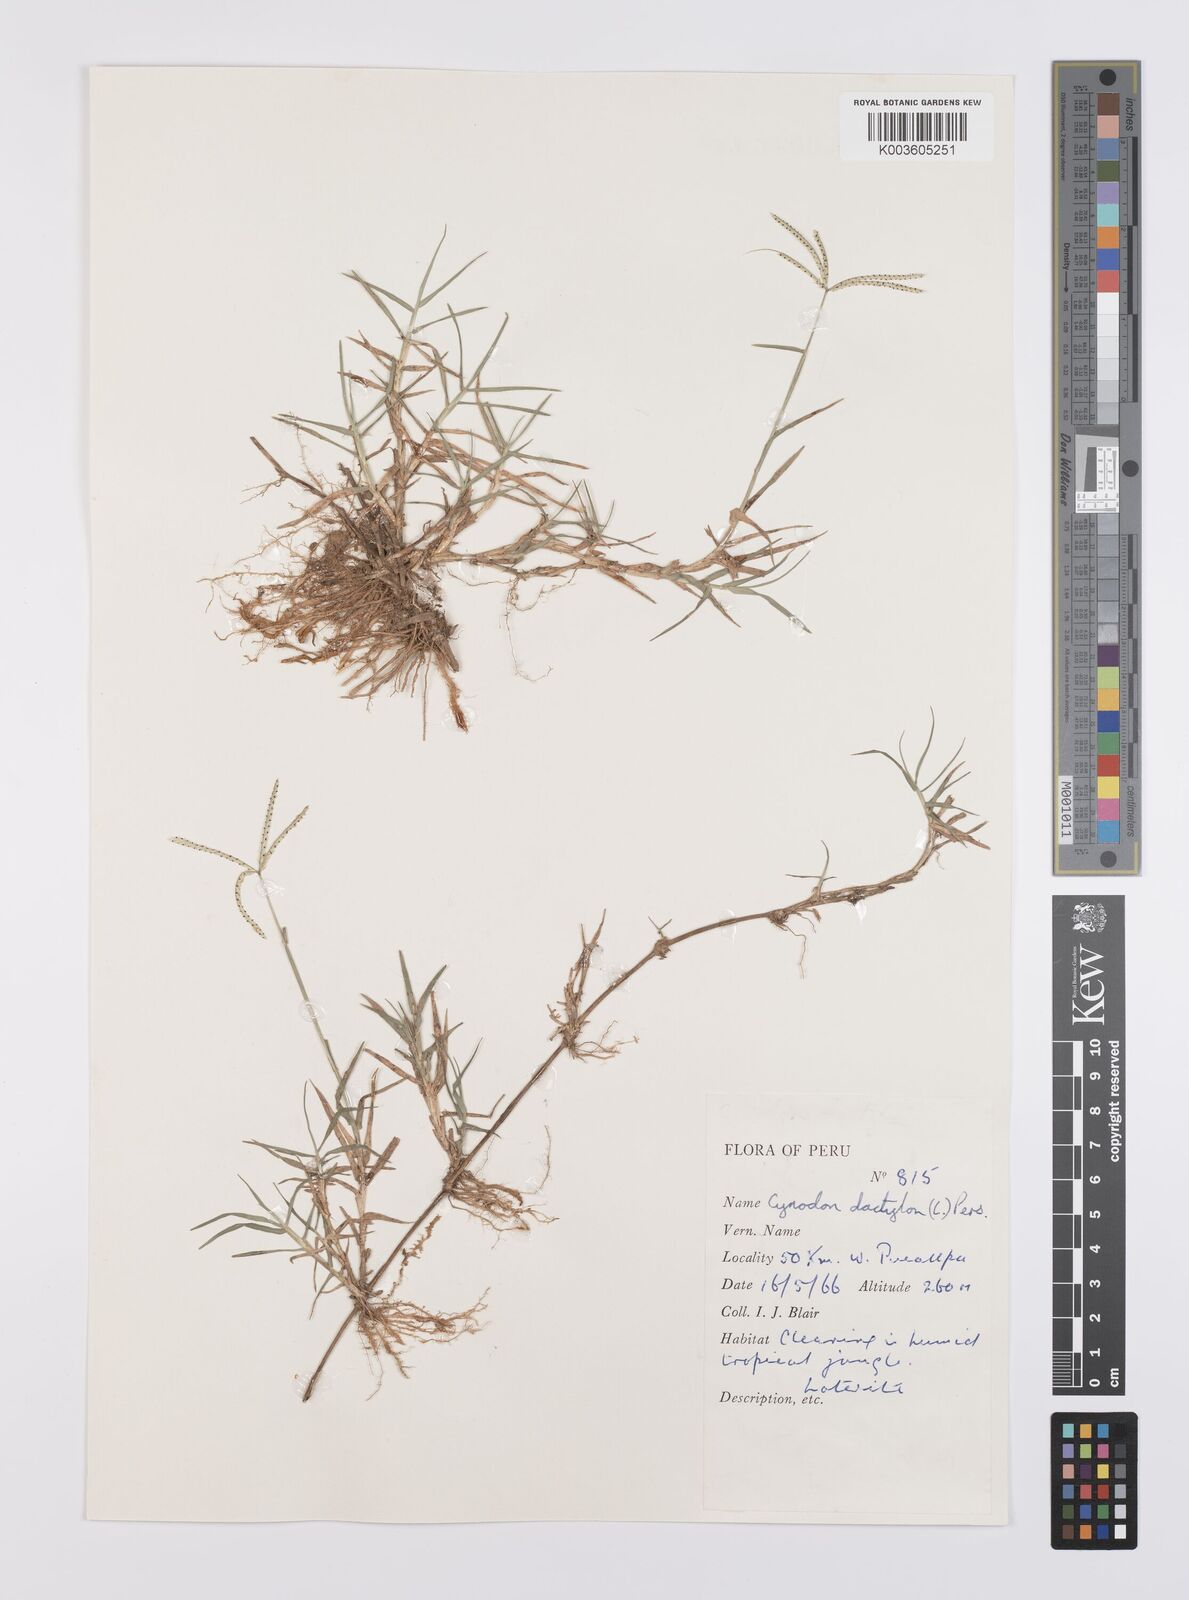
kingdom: Plantae
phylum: Tracheophyta
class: Liliopsida
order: Poales
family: Poaceae
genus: Cynodon
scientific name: Cynodon dactylon
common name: Bermuda grass
